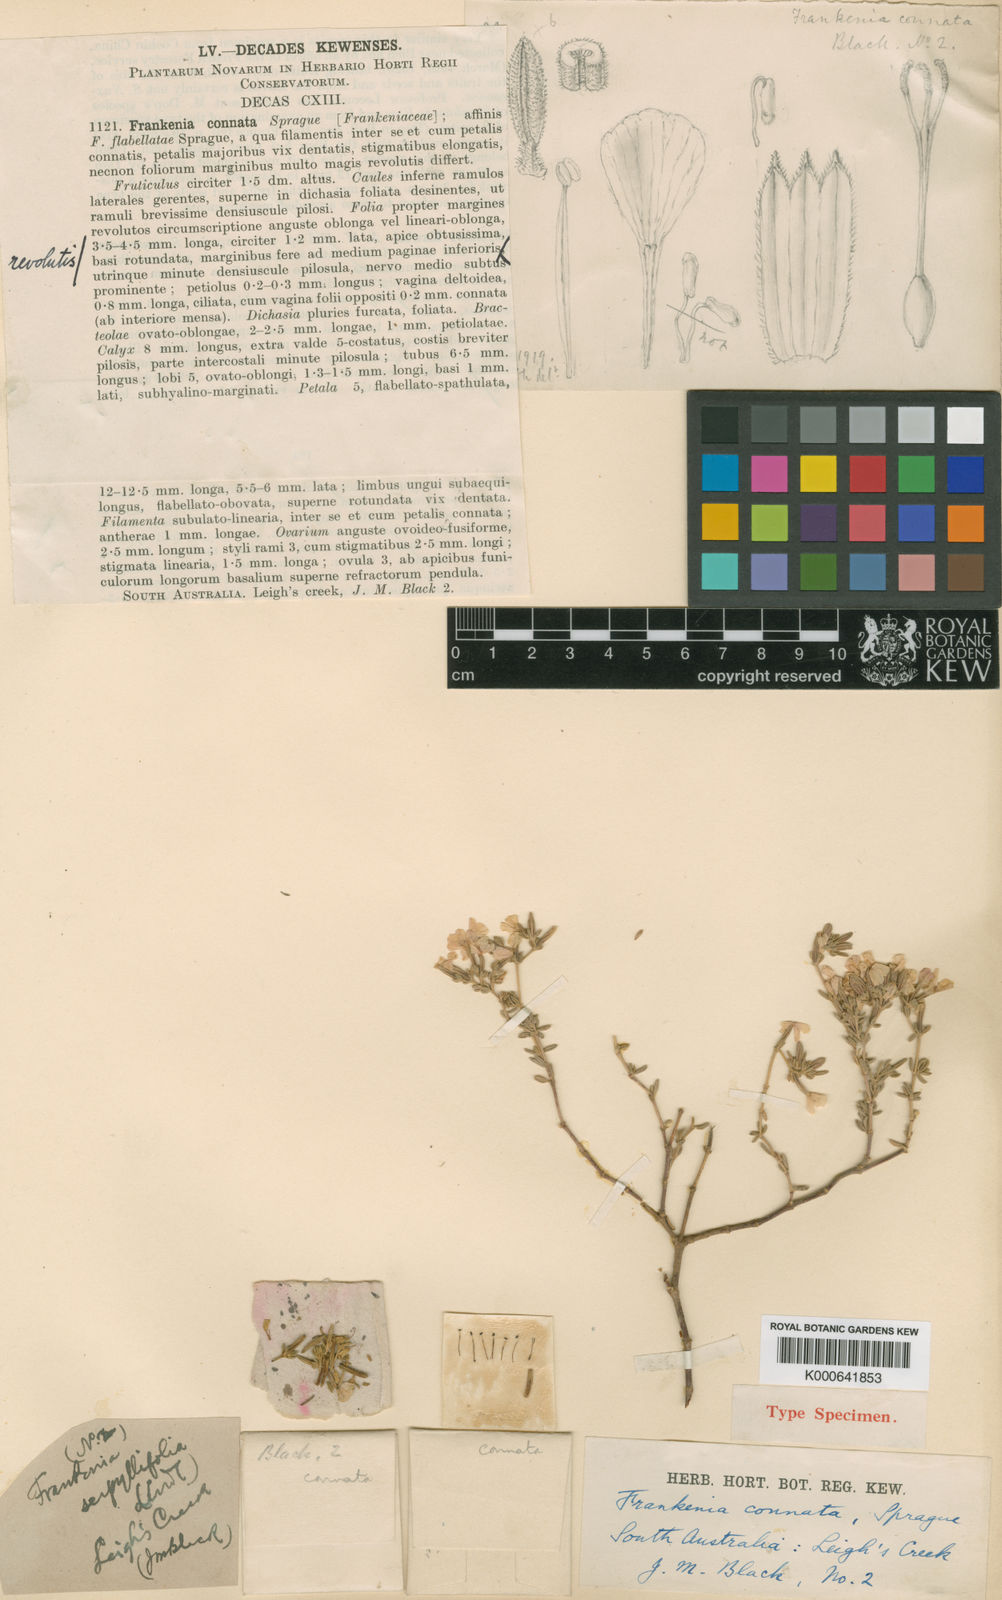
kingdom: Plantae
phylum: Tracheophyta
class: Magnoliopsida
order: Caryophyllales
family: Frankeniaceae
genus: Frankenia
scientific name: Frankenia connata
